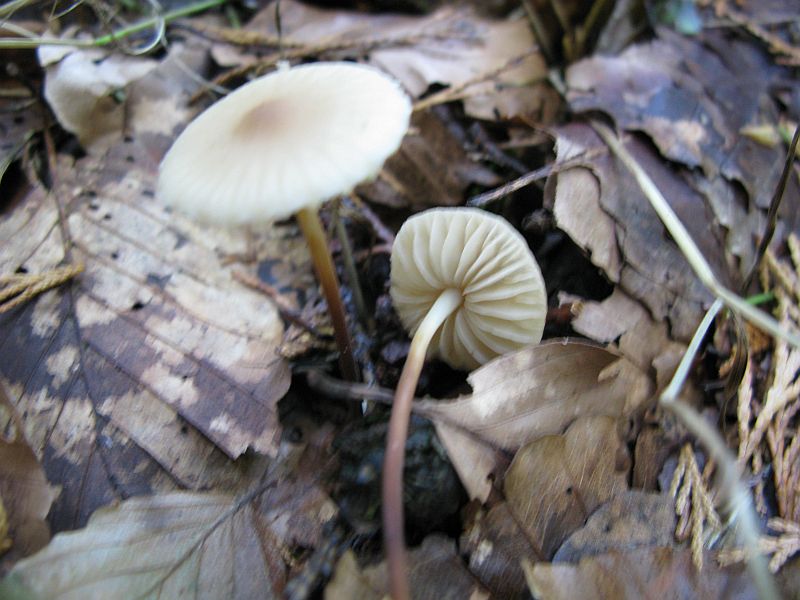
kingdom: Fungi
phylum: Basidiomycota
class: Agaricomycetes
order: Agaricales
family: Marasmiaceae
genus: Marasmius
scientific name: Marasmius torquescens
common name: filtfodet bruskhat
